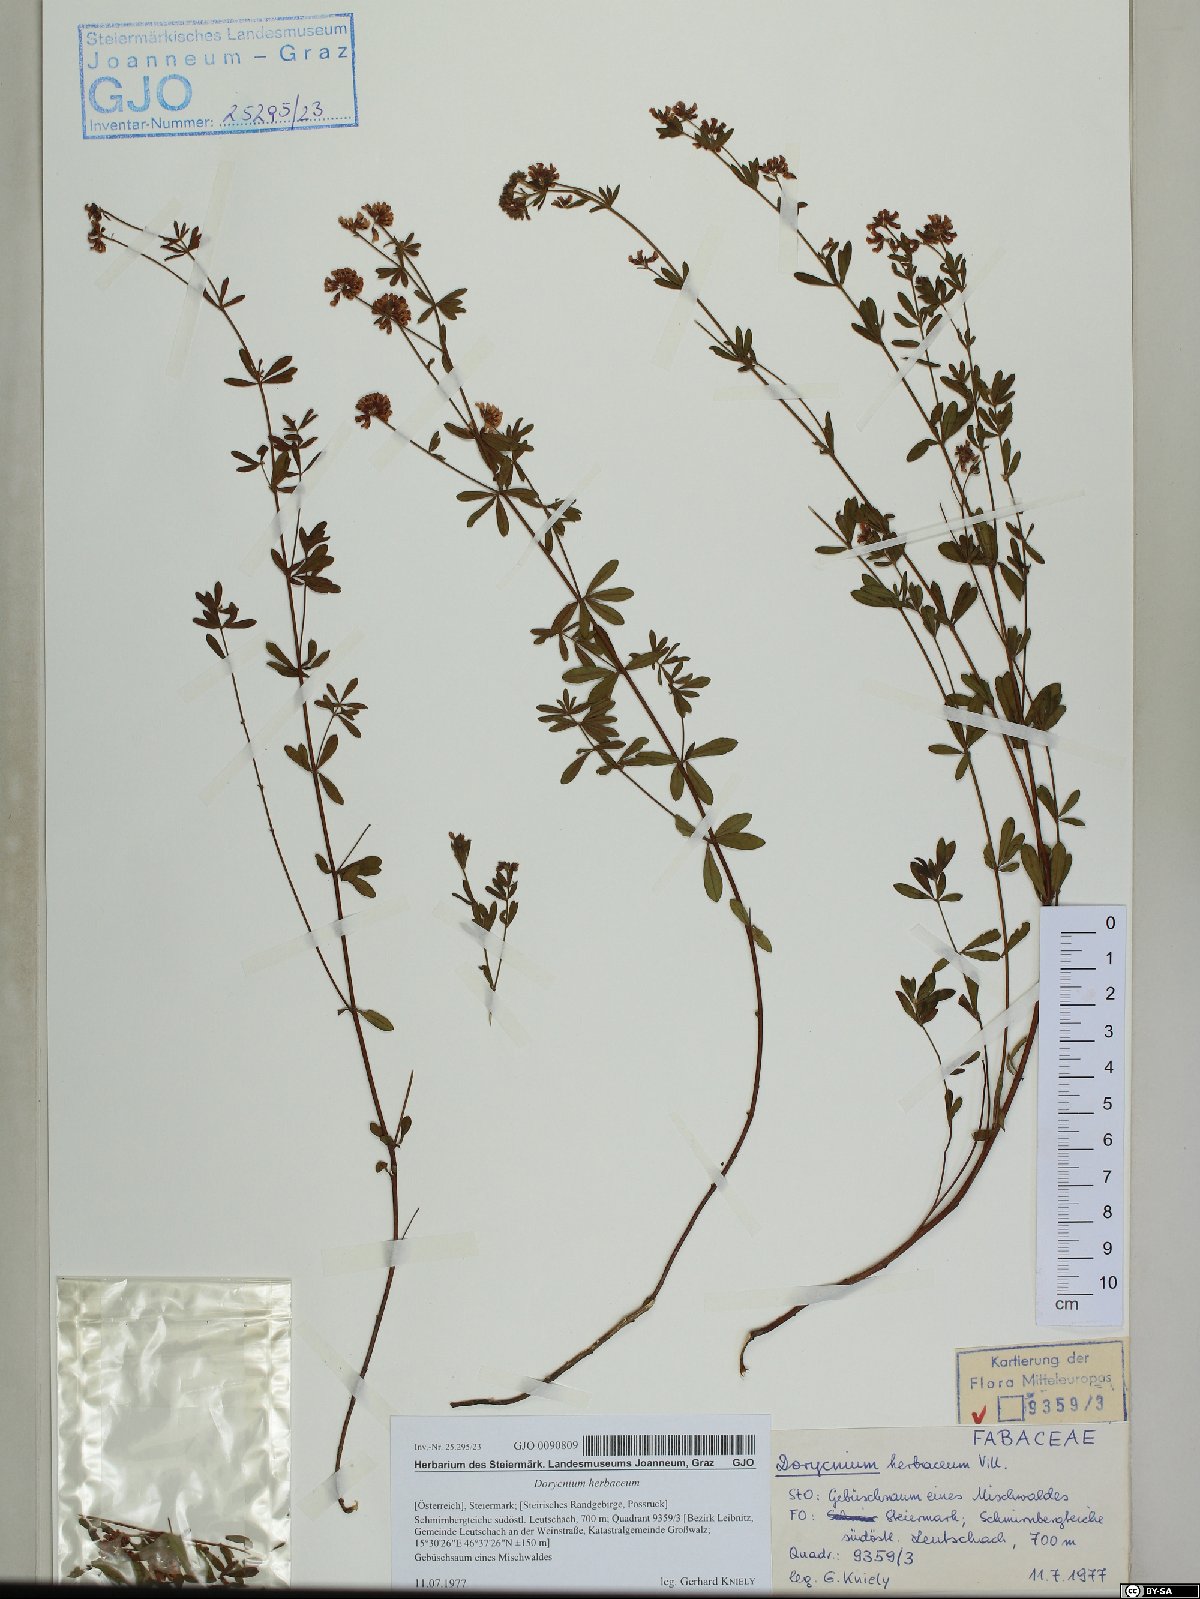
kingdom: Plantae
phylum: Tracheophyta
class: Magnoliopsida
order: Fabales
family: Fabaceae
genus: Lotus
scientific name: Lotus herbaceus
